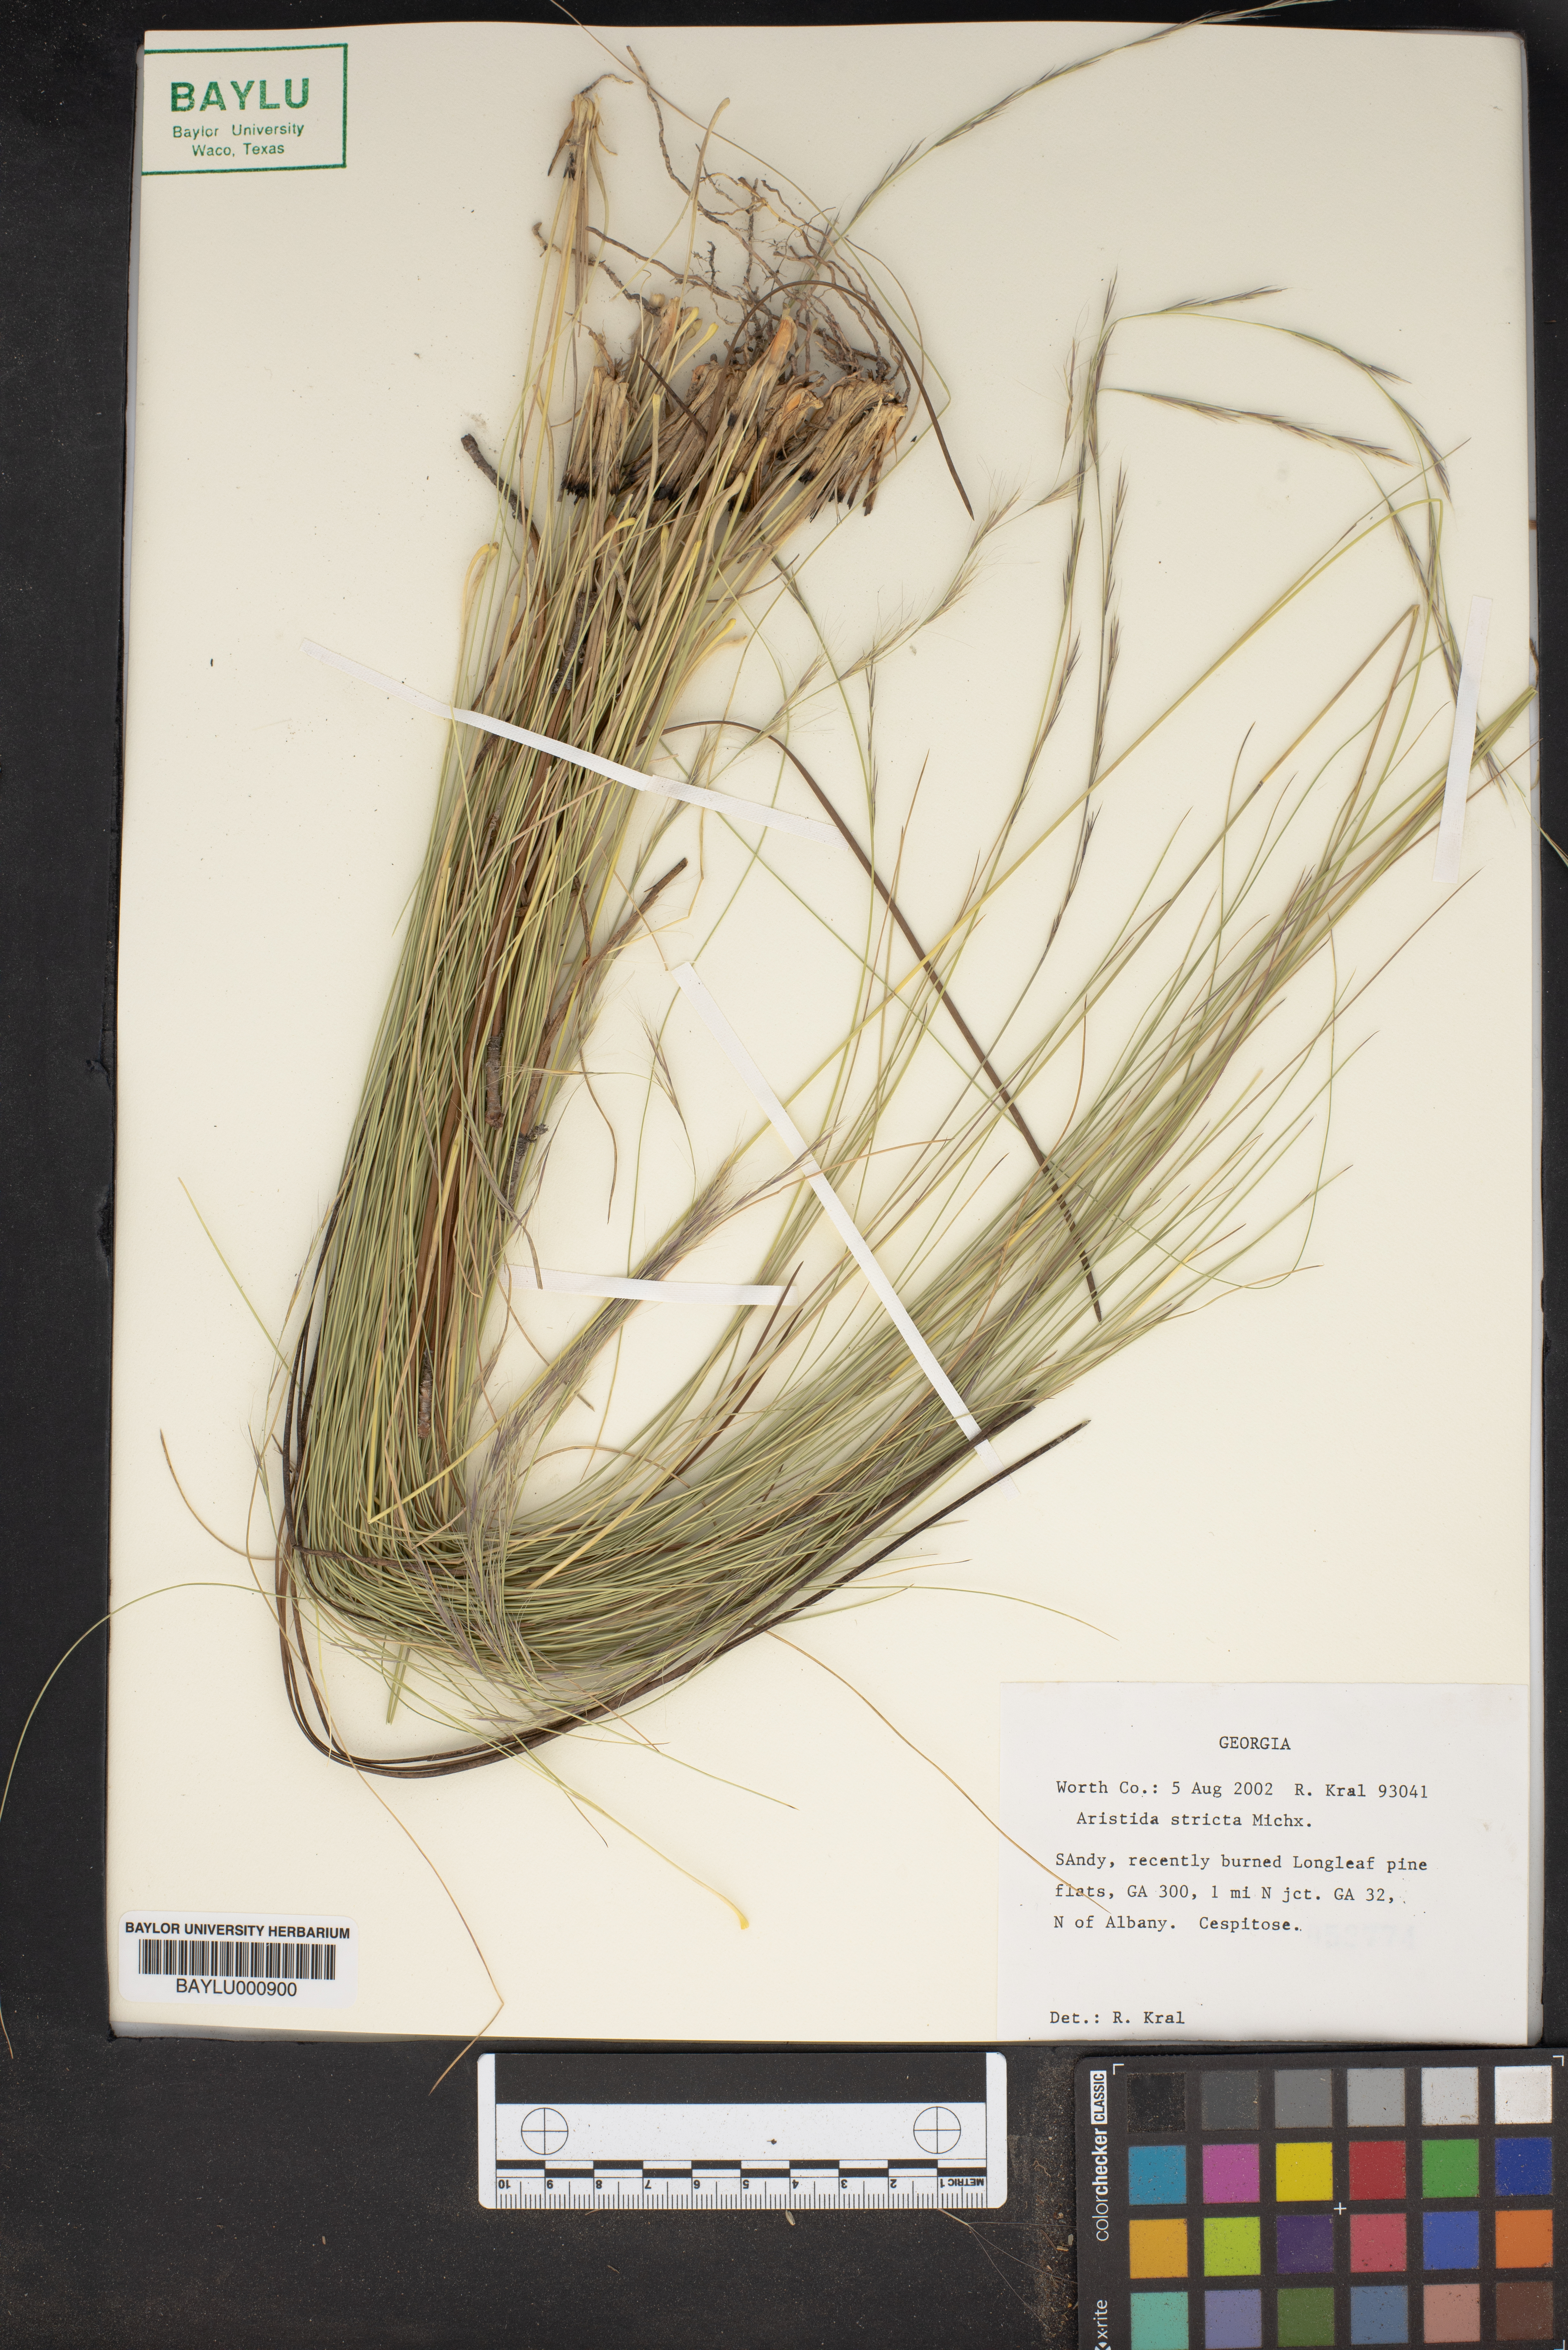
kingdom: Plantae
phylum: Tracheophyta
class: Liliopsida
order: Poales
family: Poaceae
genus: Aristida
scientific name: Aristida stricta
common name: Pineland three-awn
